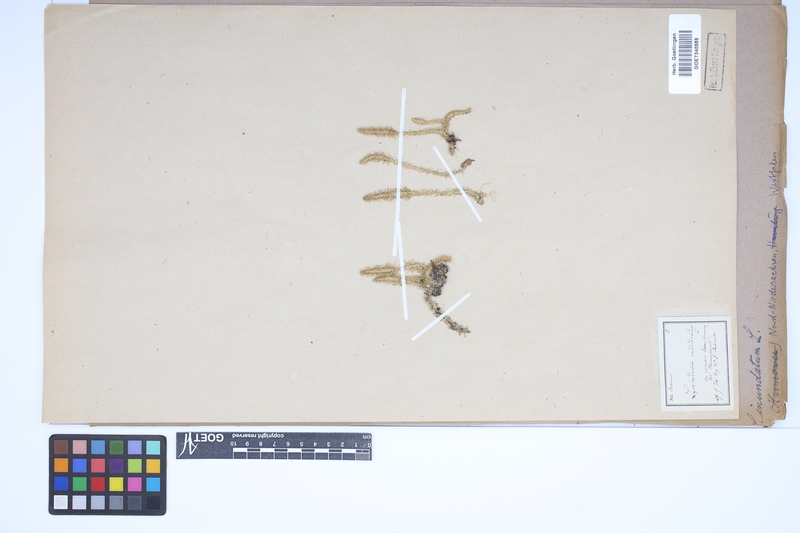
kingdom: Plantae
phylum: Tracheophyta
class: Lycopodiopsida
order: Lycopodiales
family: Lycopodiaceae
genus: Lycopodiella
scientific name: Lycopodiella inundata
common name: Marsh clubmoss
